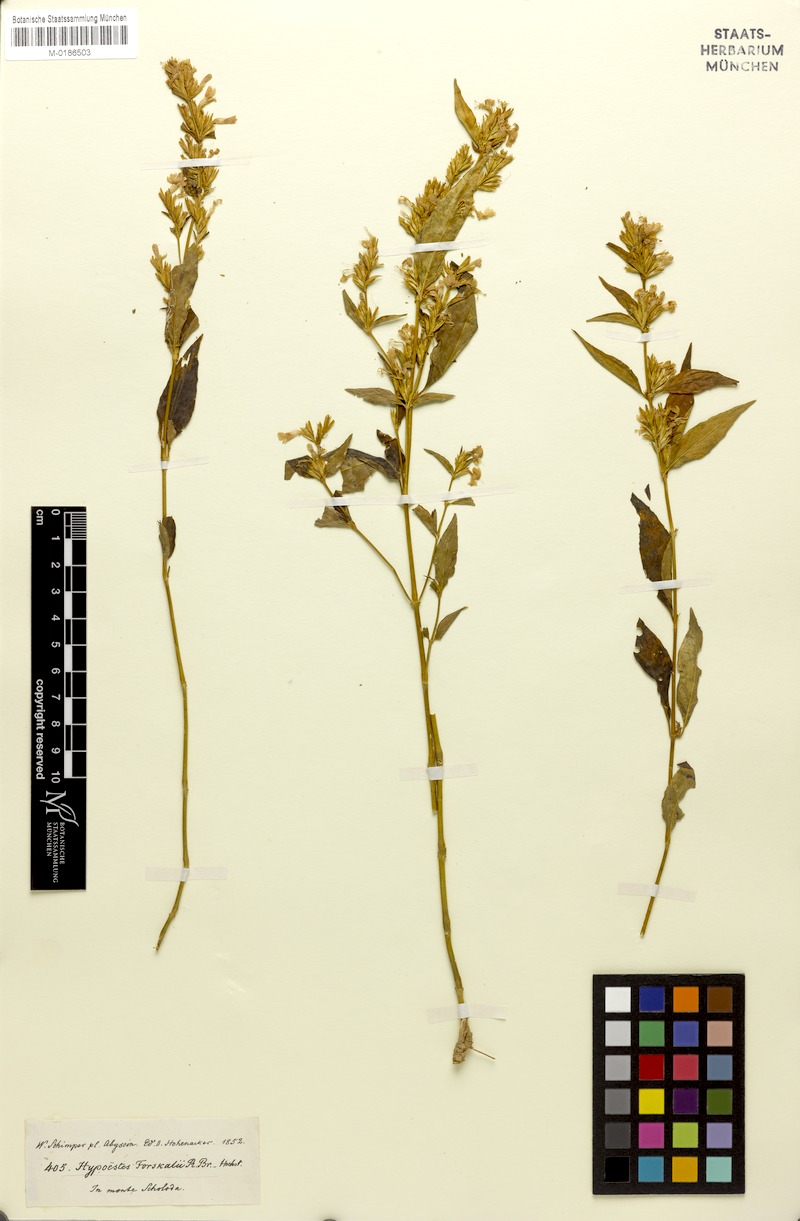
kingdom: Plantae
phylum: Tracheophyta
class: Magnoliopsida
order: Lamiales
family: Acanthaceae
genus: Hypoestes
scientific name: Hypoestes forskaolii
